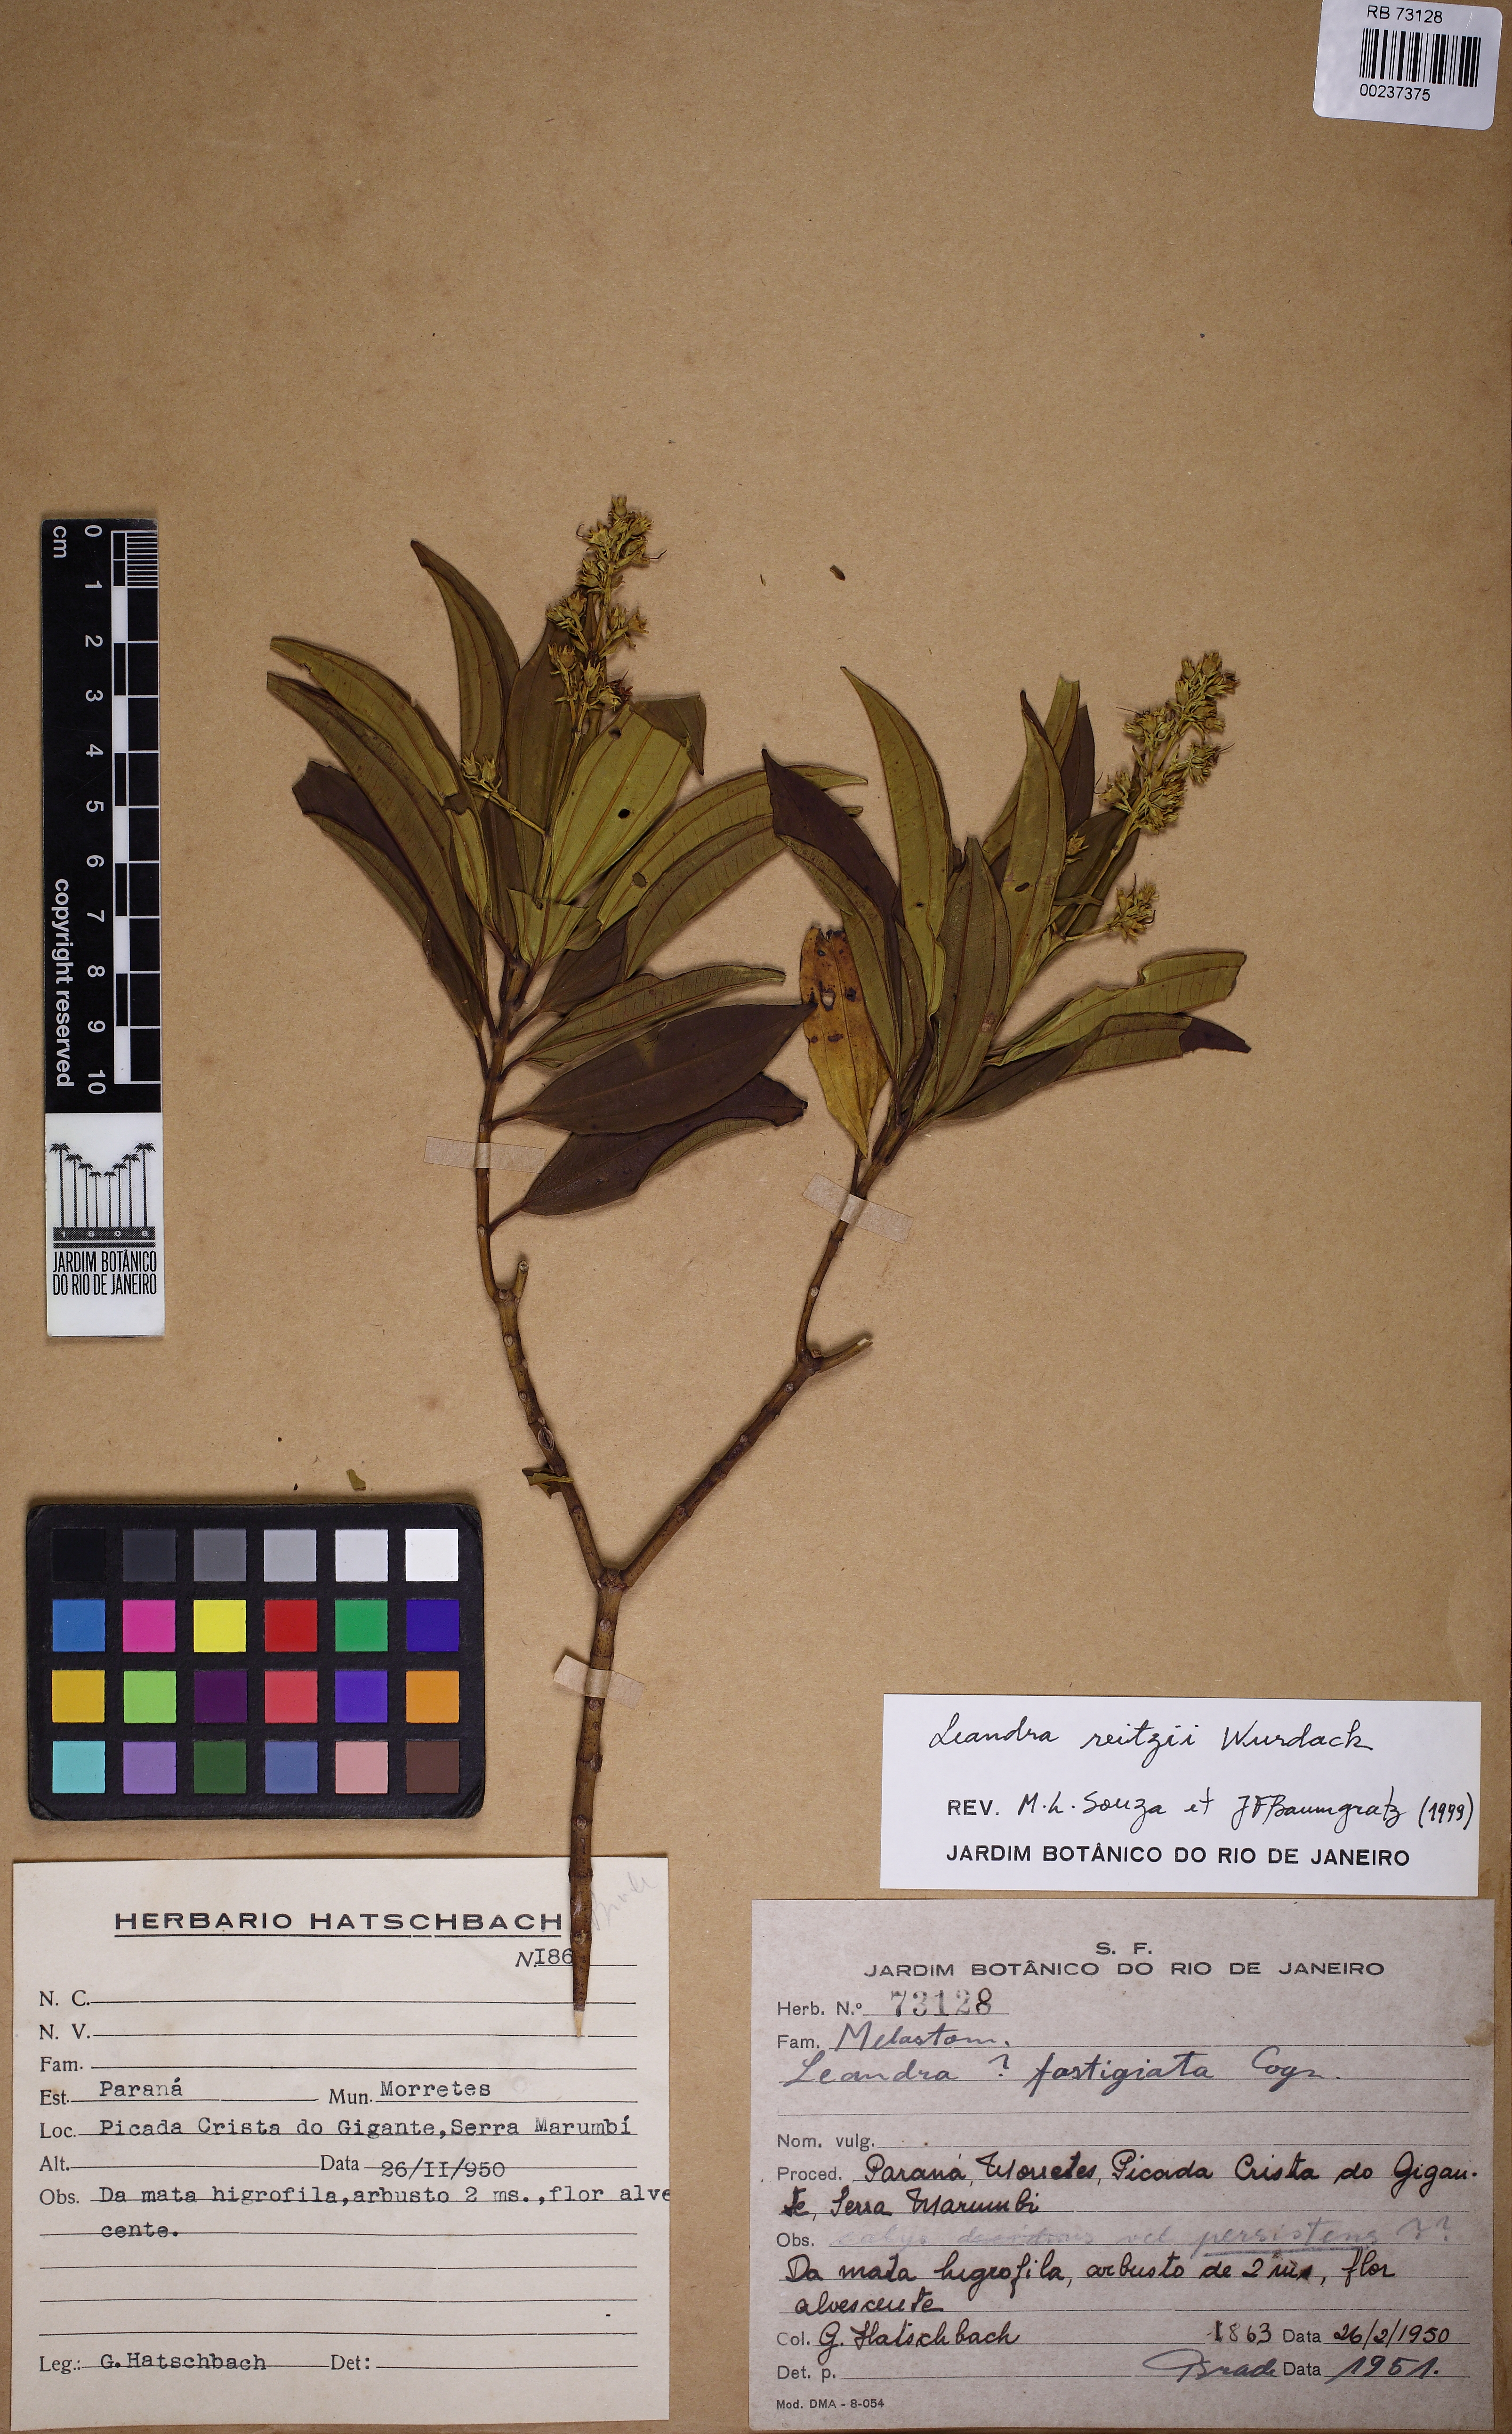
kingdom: Plantae
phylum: Tracheophyta
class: Magnoliopsida
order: Myrtales
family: Melastomataceae
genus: Miconia
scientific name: Miconia reitzii
